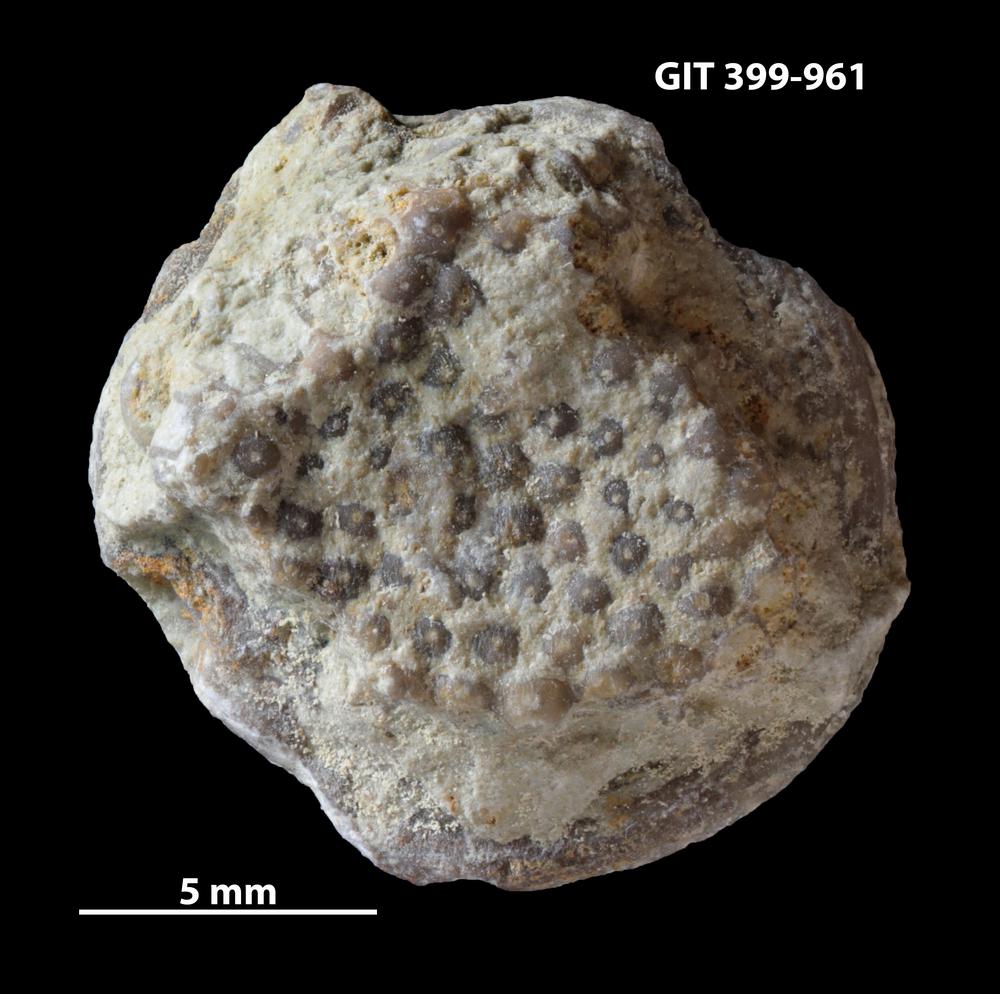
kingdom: Plantae
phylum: Chlorophyta
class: Ulvophyceae
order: Cyclocrinales
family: Cyclocrinaceae
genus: Mastopora
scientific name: Mastopora concava
